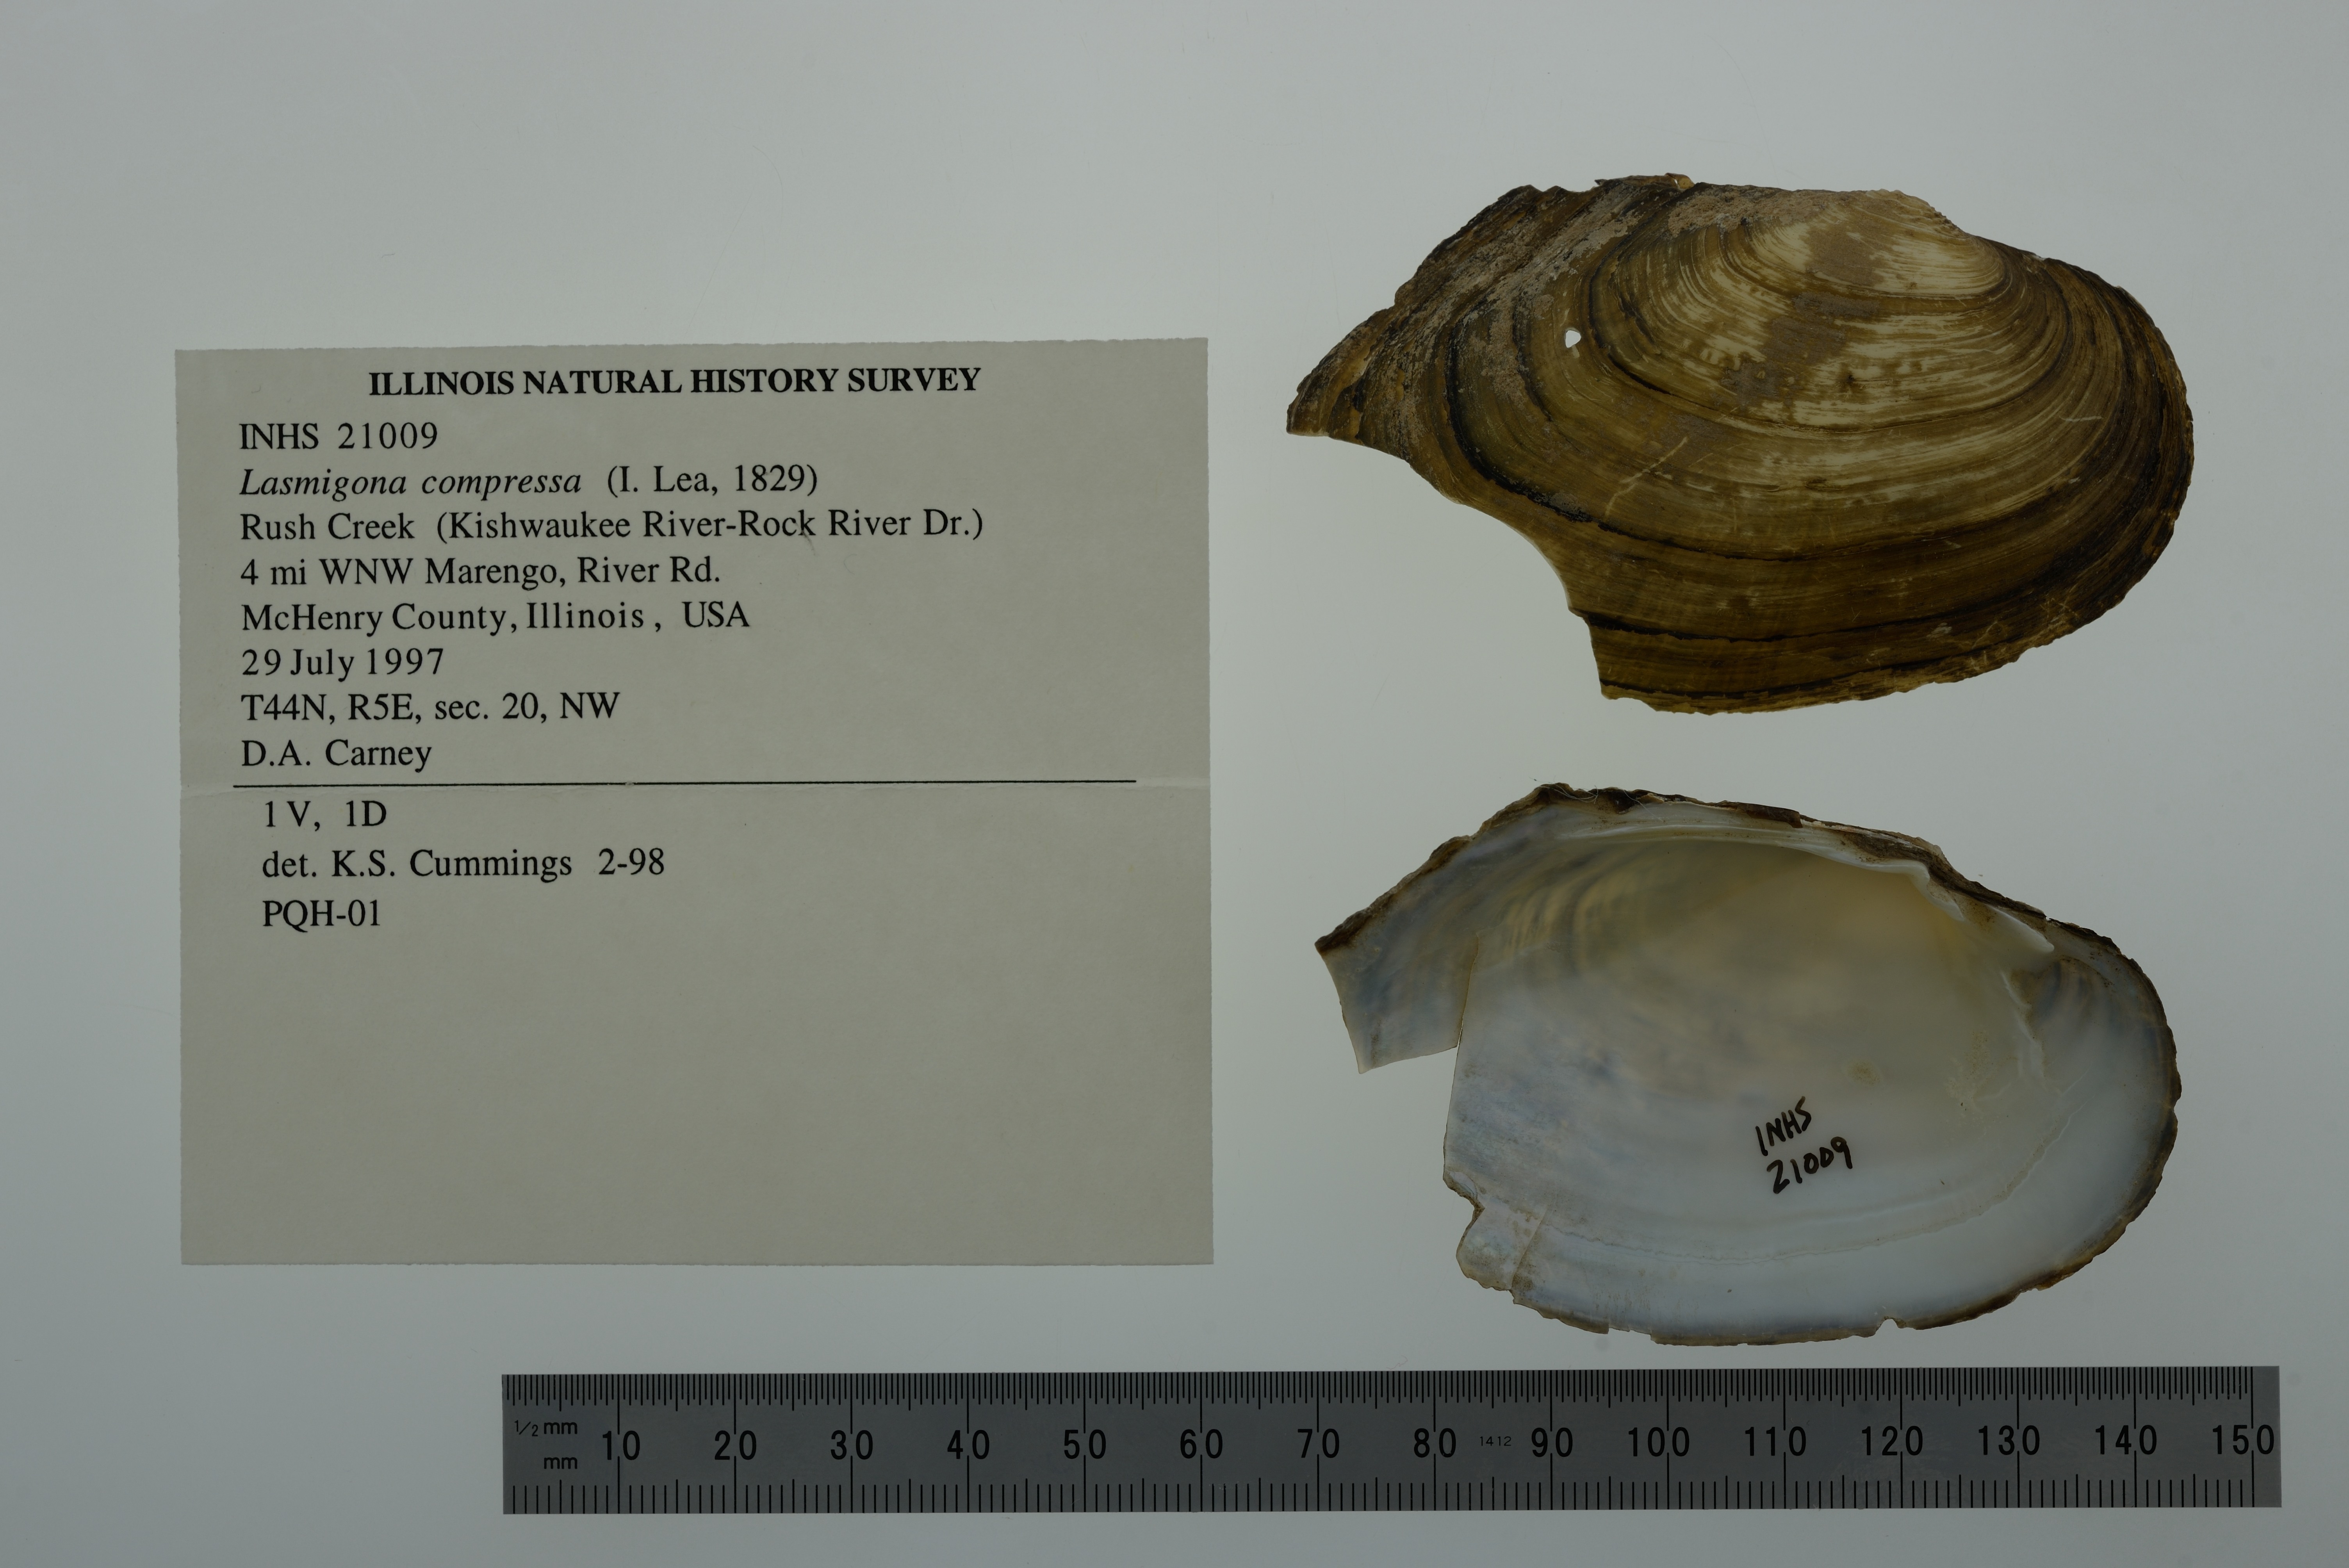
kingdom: Animalia
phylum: Mollusca
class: Bivalvia
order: Unionida
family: Unionidae
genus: Lasmigona
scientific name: Lasmigona compressa
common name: Creek heelsplitter
